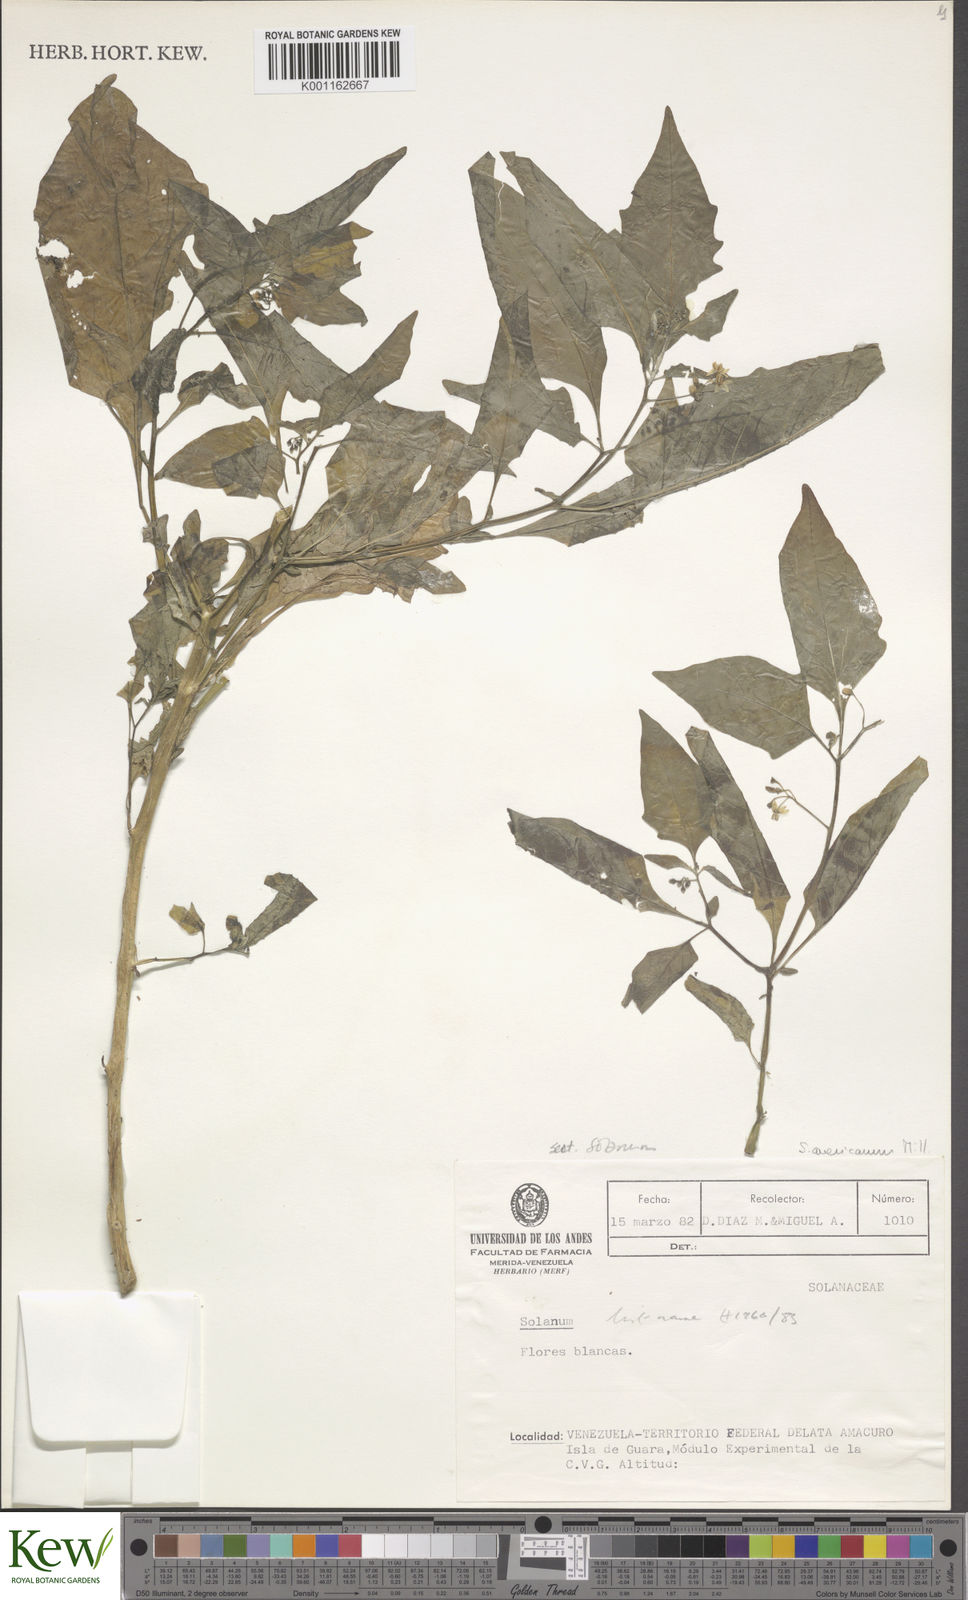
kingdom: Plantae
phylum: Tracheophyta
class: Magnoliopsida
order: Solanales
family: Solanaceae
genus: Solanum
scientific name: Solanum nigrescens
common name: Divine nightshade
